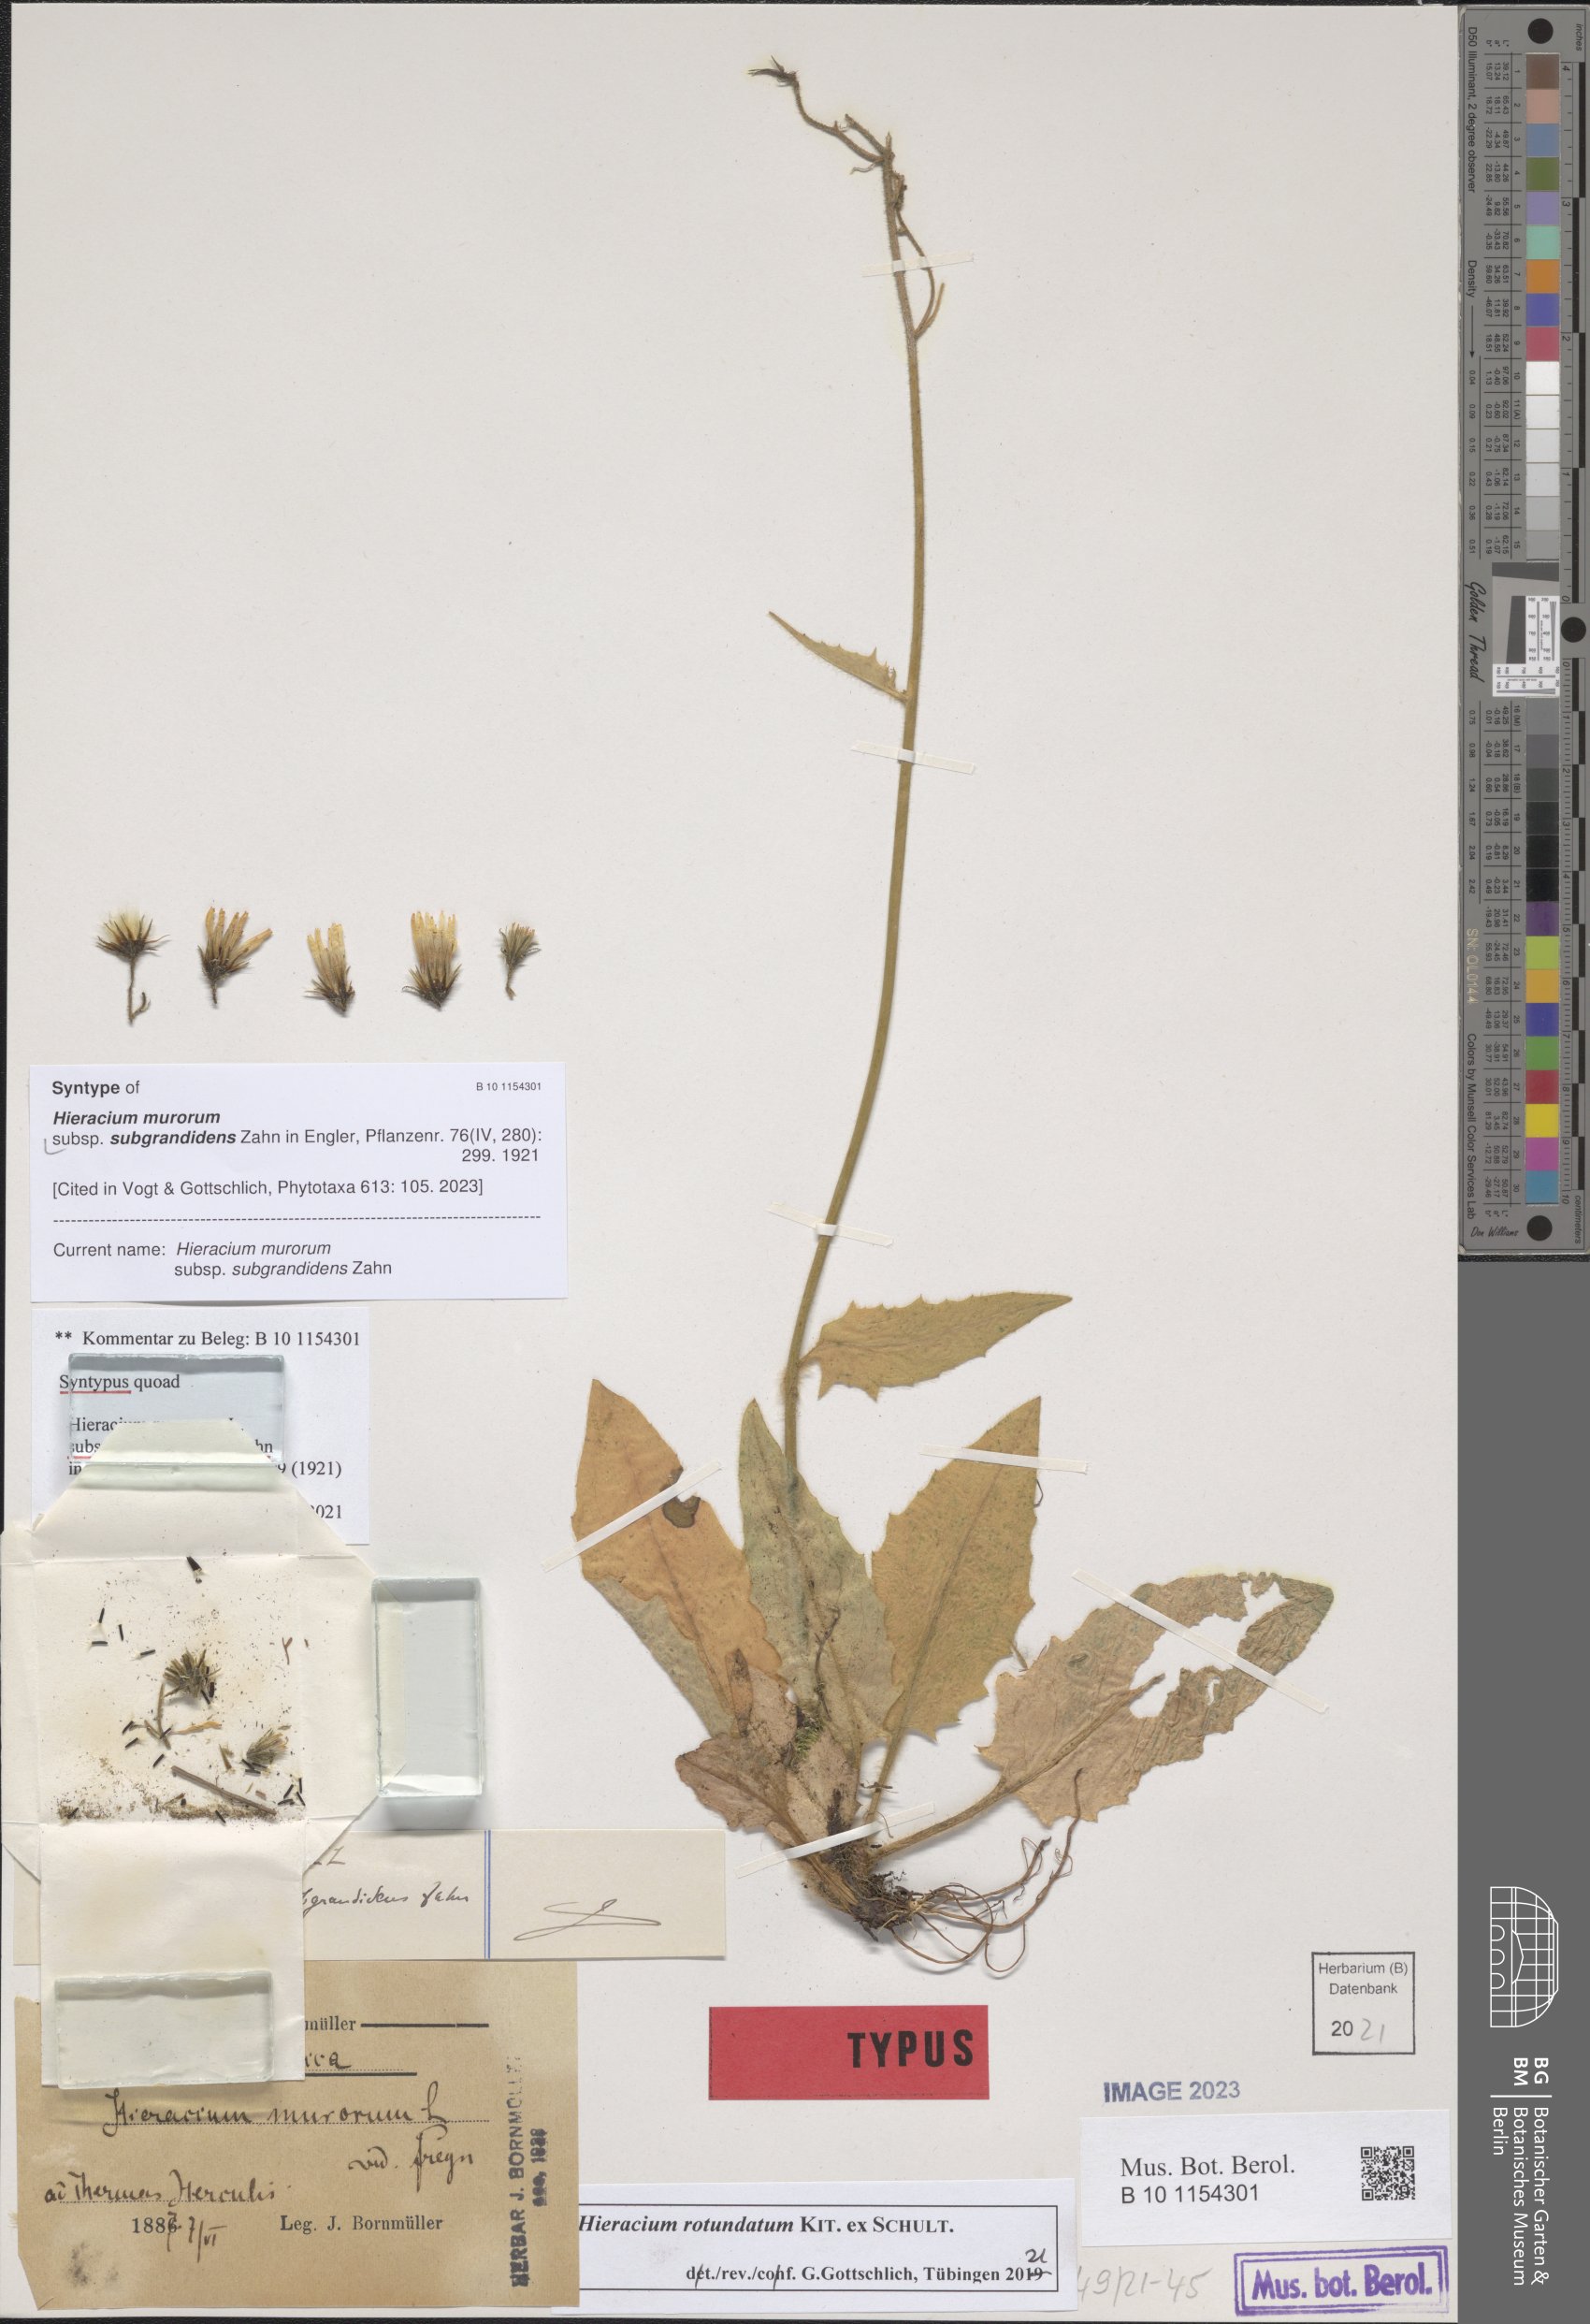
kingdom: Plantae
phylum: Tracheophyta
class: Magnoliopsida
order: Asterales
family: Asteraceae
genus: Hieracium
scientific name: Hieracium murorum
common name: Wall hawkweed
